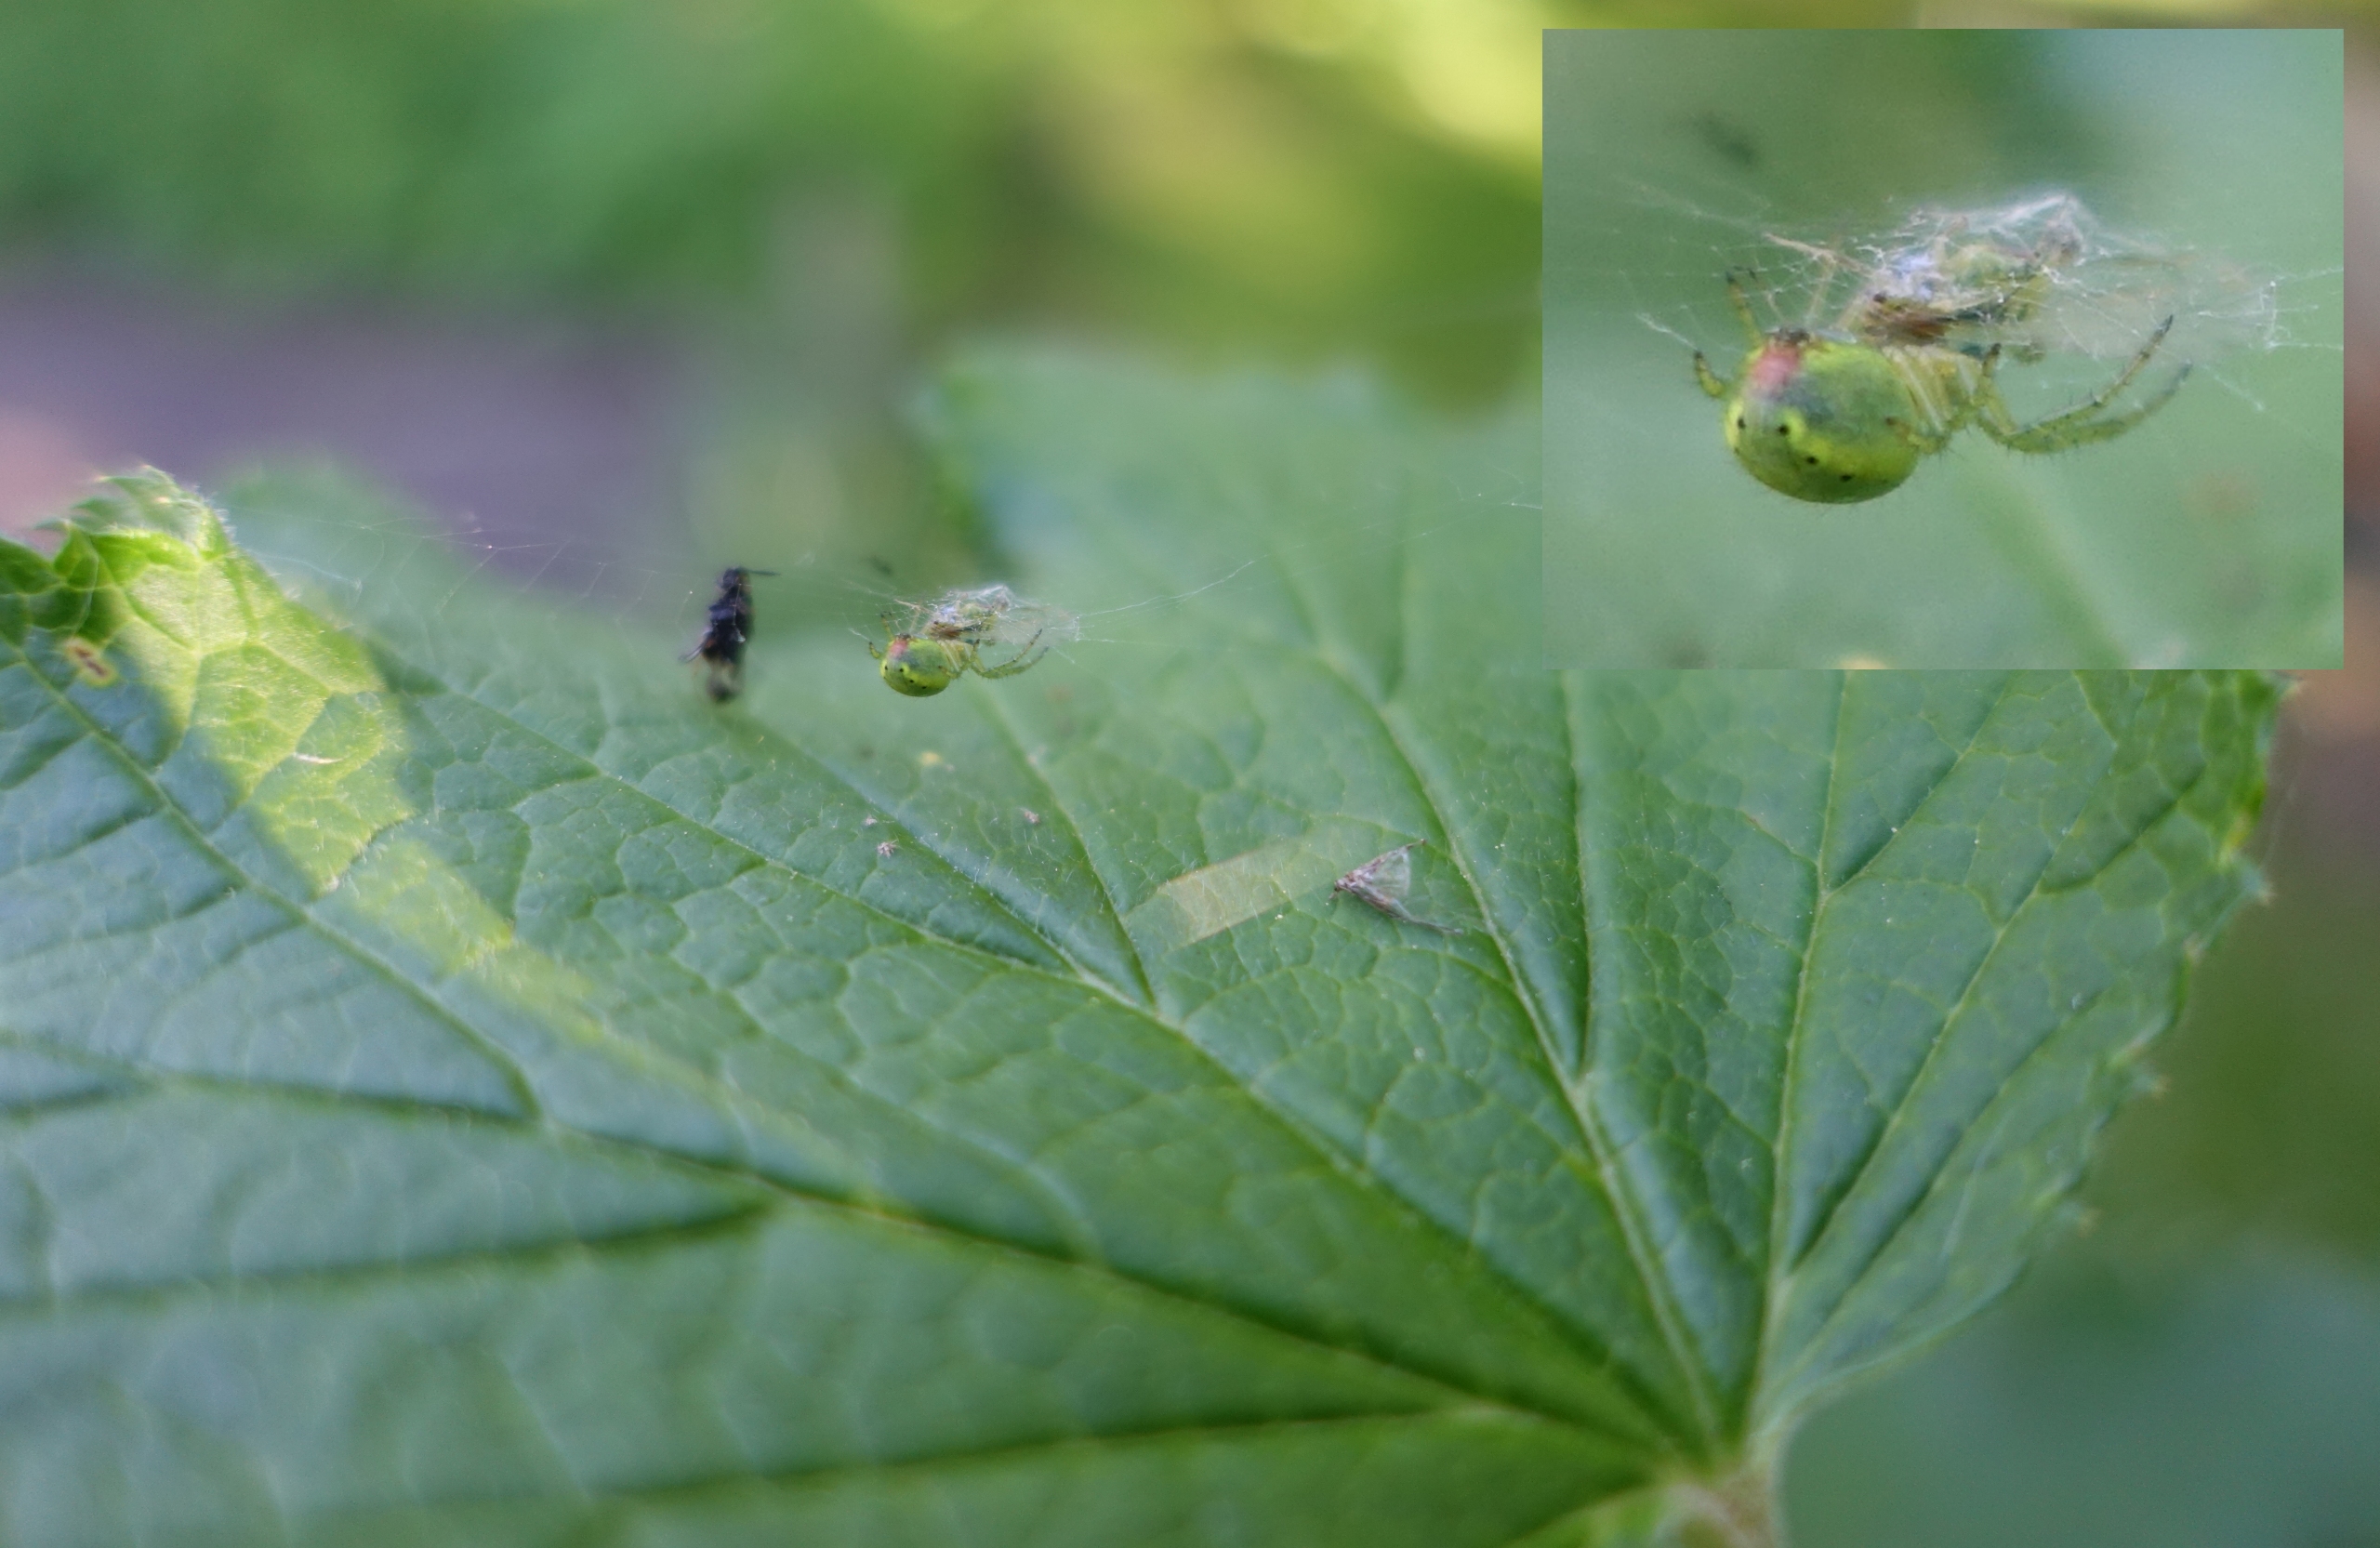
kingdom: Animalia
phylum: Arthropoda
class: Arachnida
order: Araneae
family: Araneidae
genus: Araniella
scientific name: Araniella
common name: Agurkeedderkopslægten
